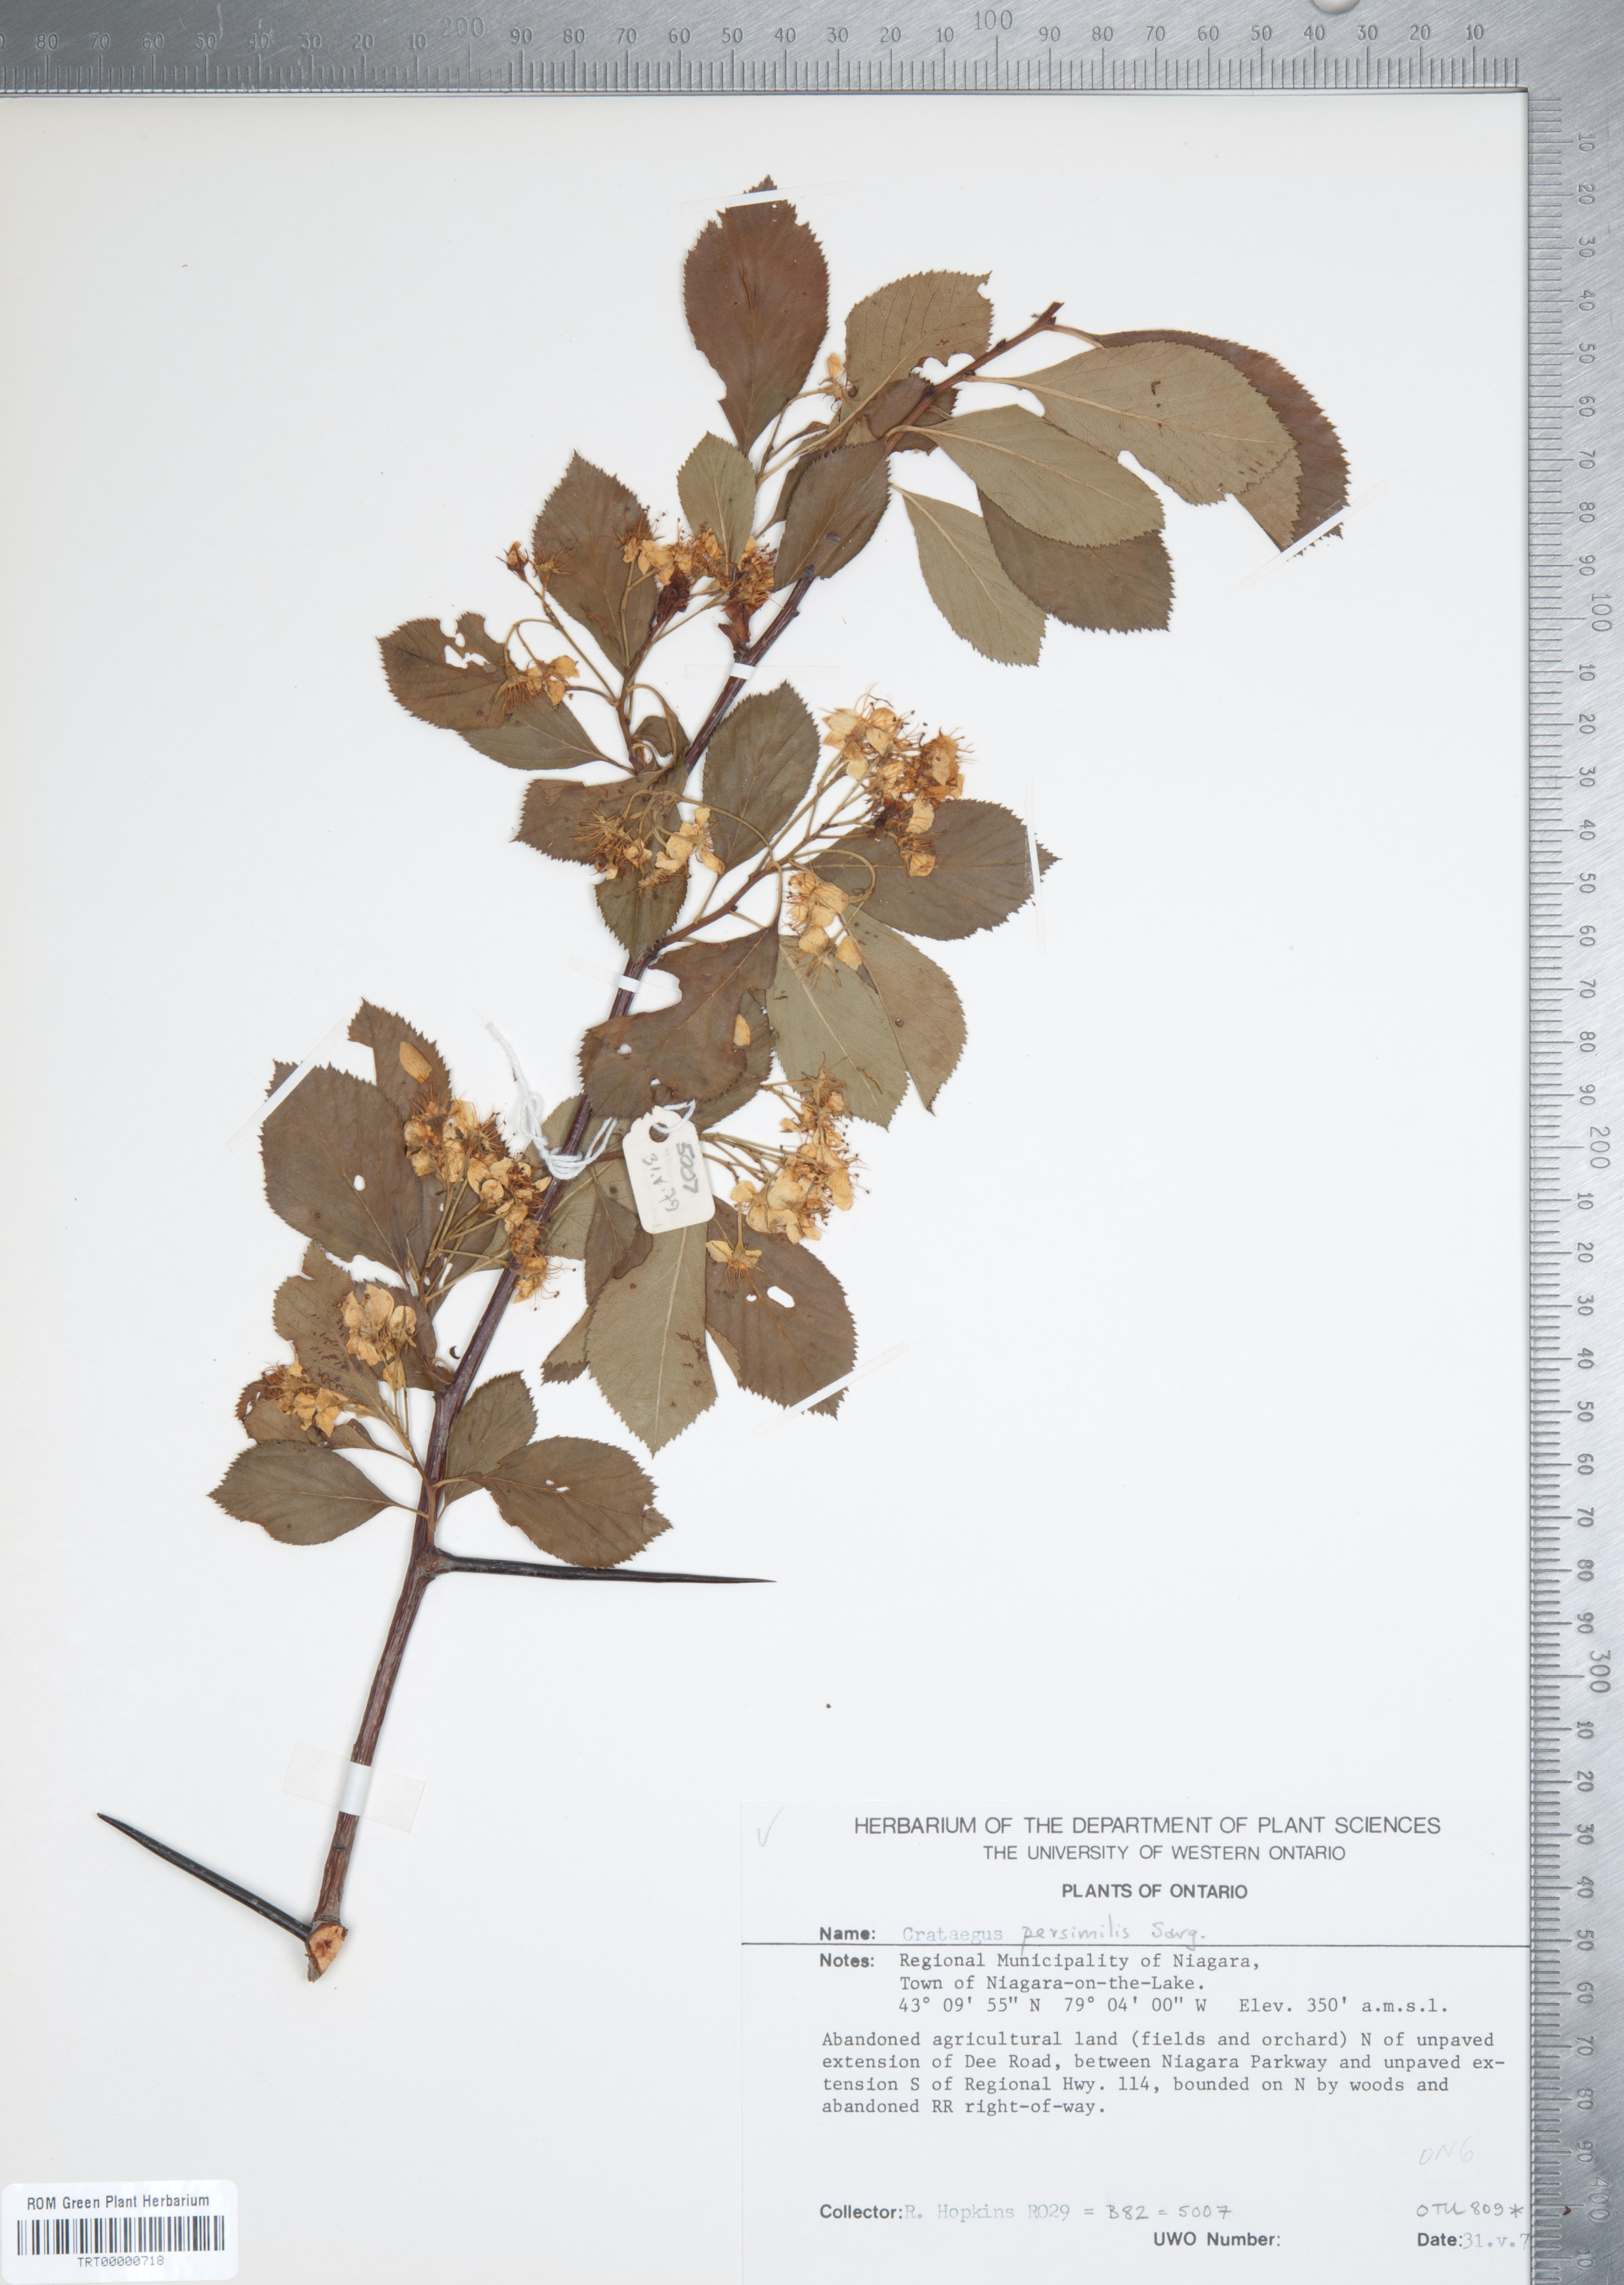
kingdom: Plantae
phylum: Tracheophyta
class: Magnoliopsida
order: Rosales
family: Rosaceae
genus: Crataegus
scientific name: Crataegus persimilis
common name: Broad-leaved cockspurthorn
